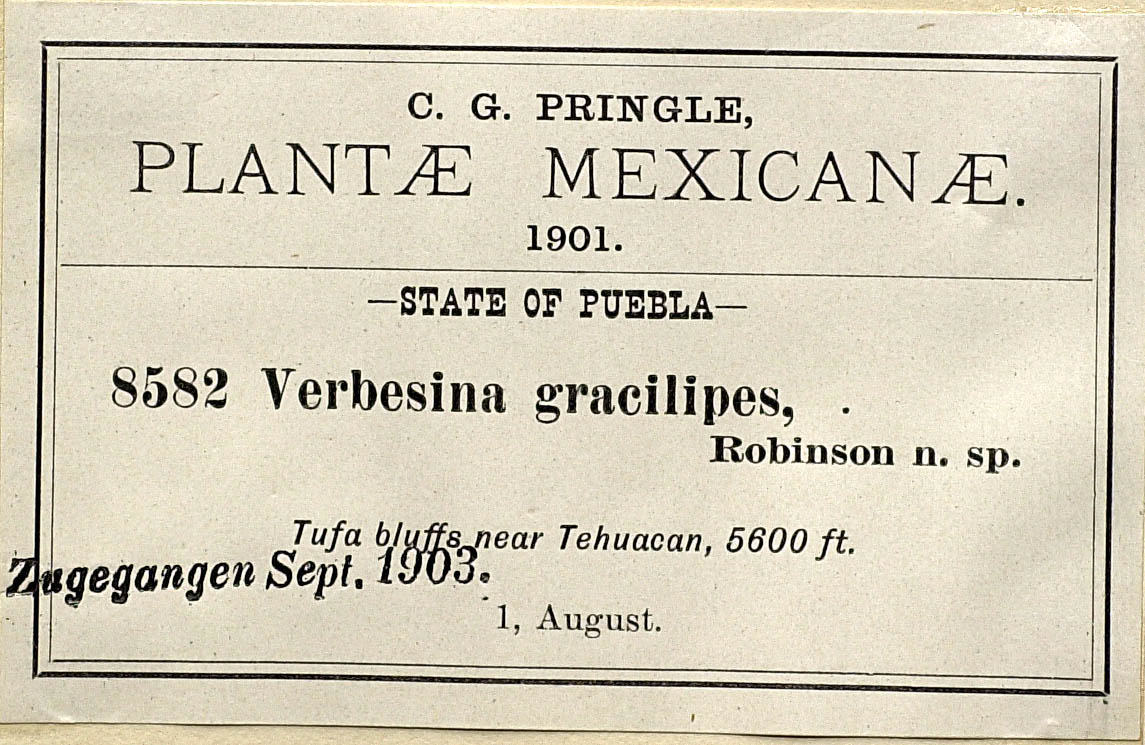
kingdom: Plantae
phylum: Tracheophyta
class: Magnoliopsida
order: Asterales
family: Asteraceae
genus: Verbesina
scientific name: Verbesina gracilipes
